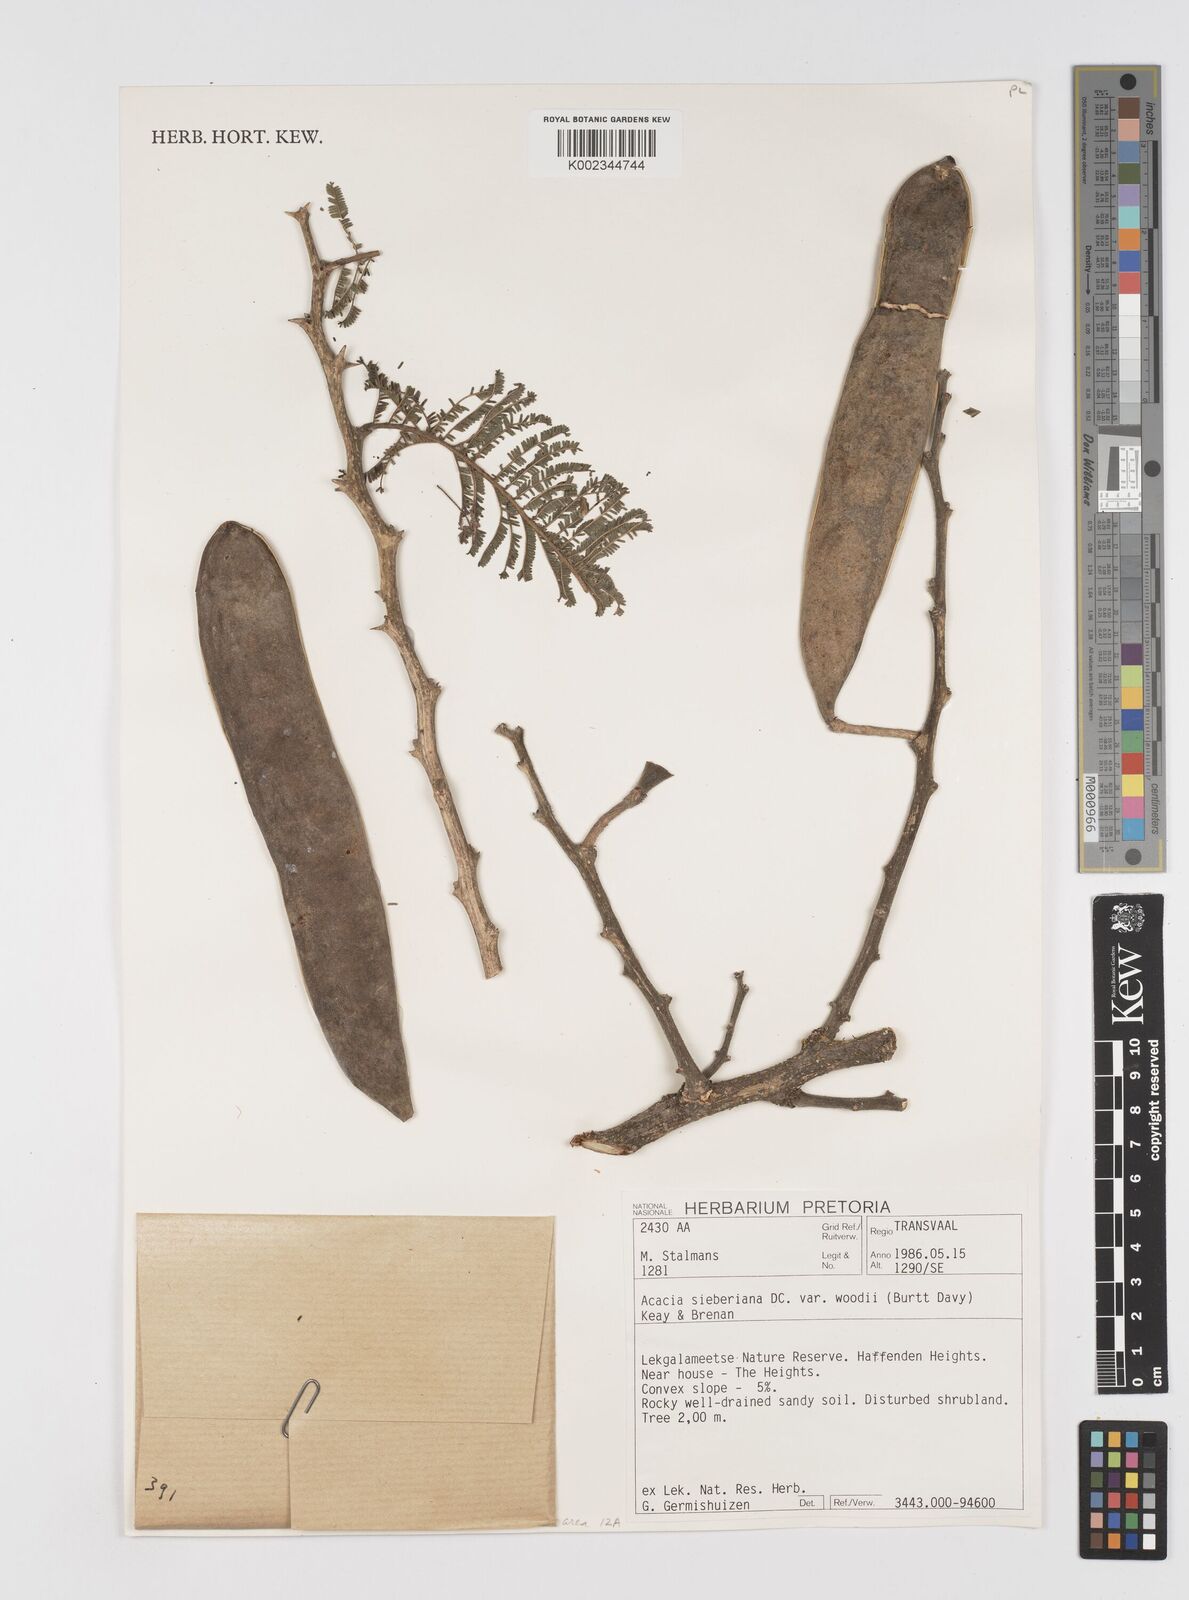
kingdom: Plantae
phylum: Tracheophyta
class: Magnoliopsida
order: Fabales
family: Fabaceae
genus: Acacia
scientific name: Acacia hamiltoniana
